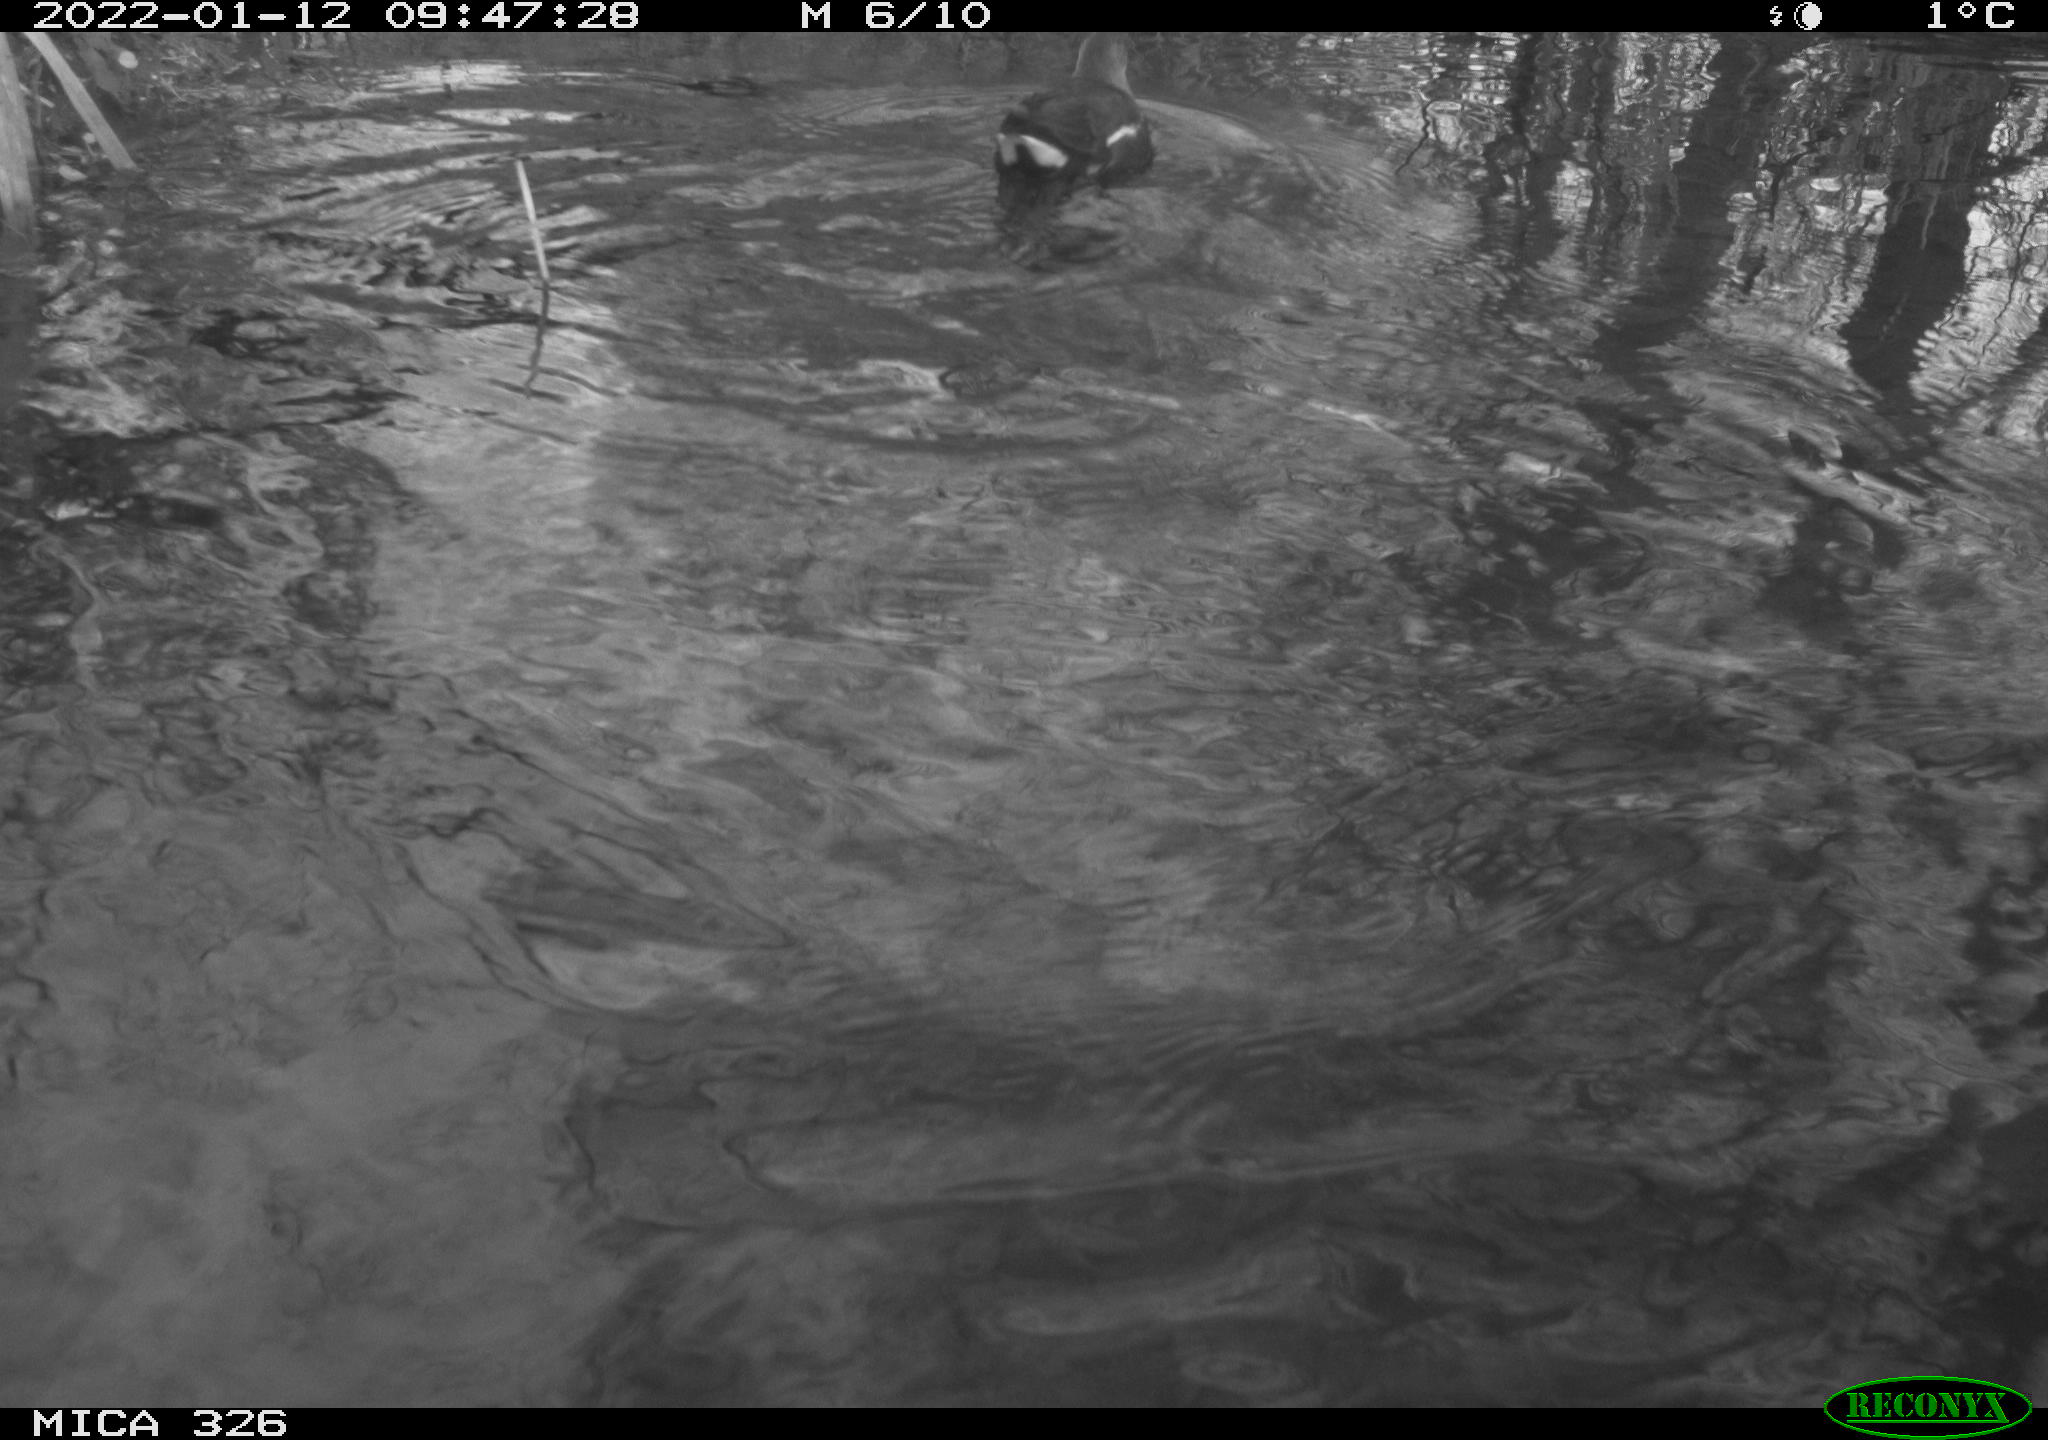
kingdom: Animalia
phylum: Chordata
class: Aves
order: Gruiformes
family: Rallidae
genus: Gallinula
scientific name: Gallinula chloropus
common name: Common moorhen
